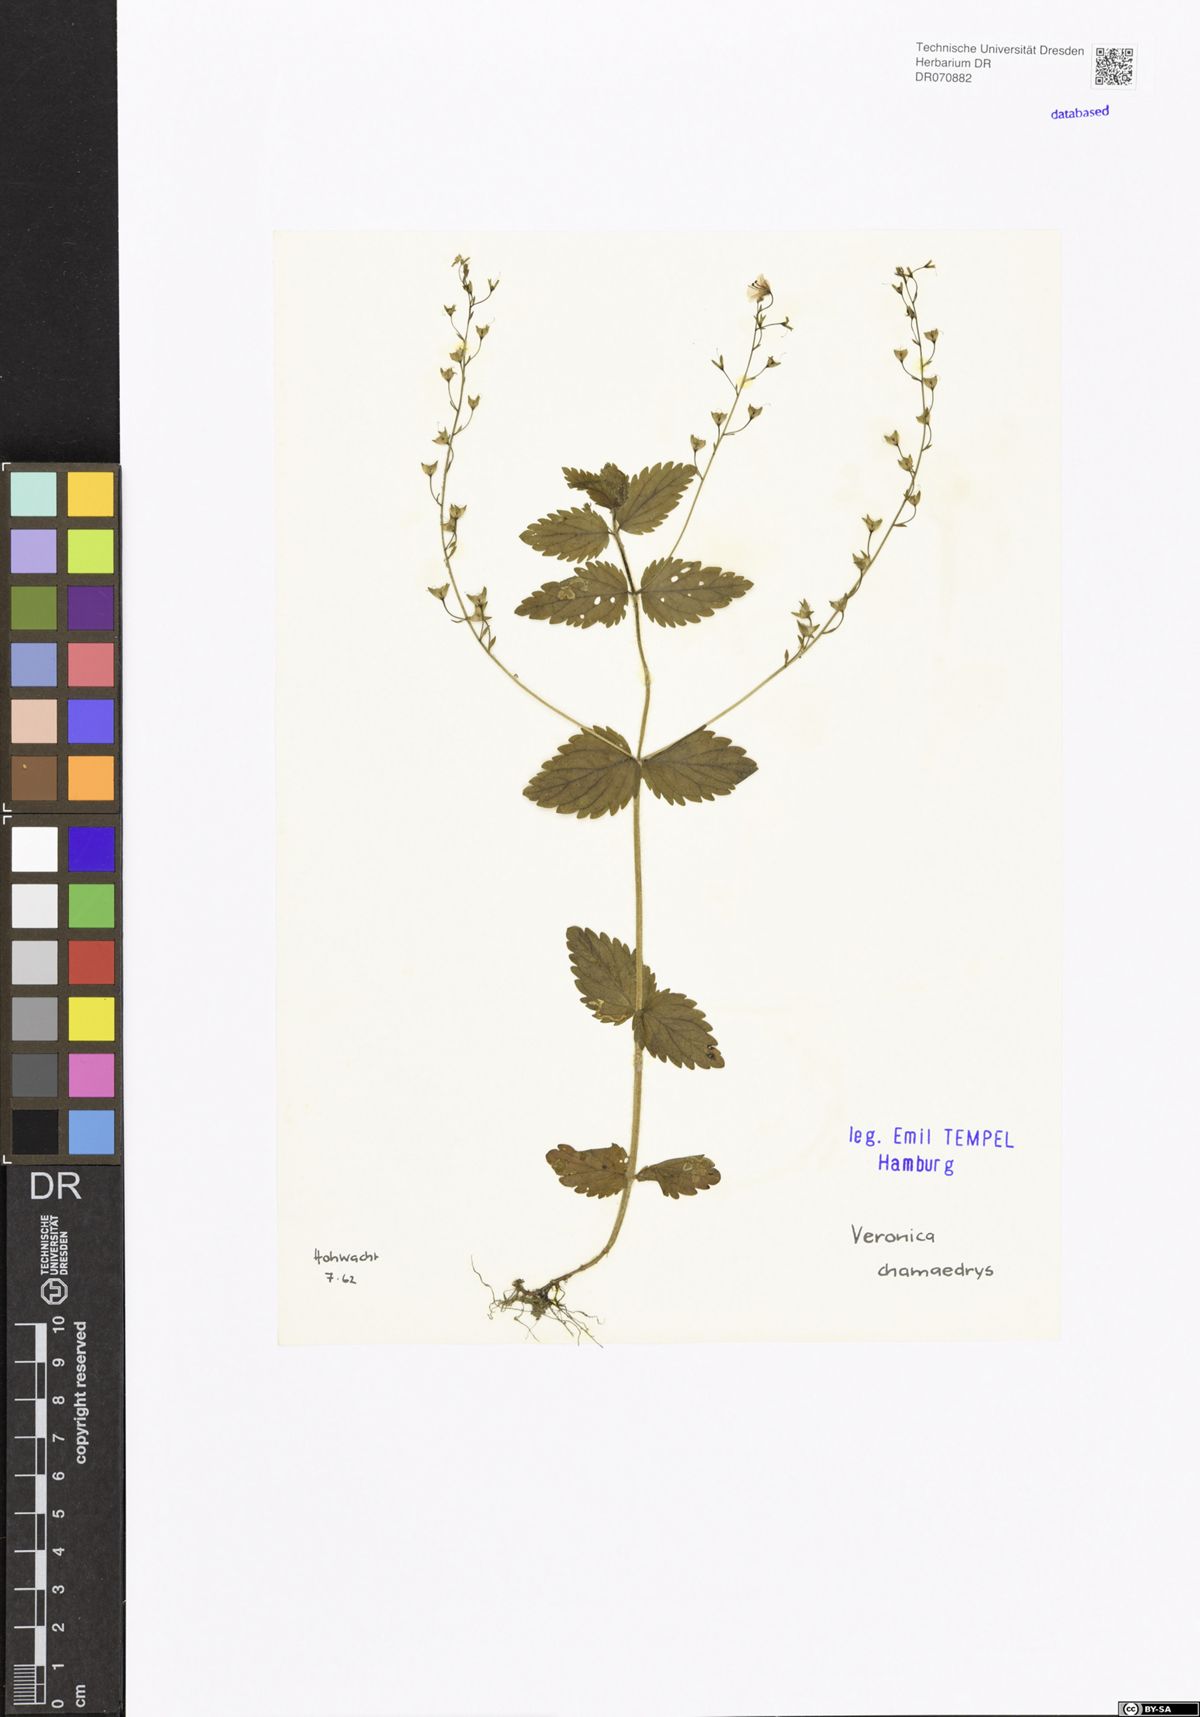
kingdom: Plantae
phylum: Tracheophyta
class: Magnoliopsida
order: Lamiales
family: Plantaginaceae
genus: Veronica
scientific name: Veronica chamaedrys
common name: Germander speedwell
